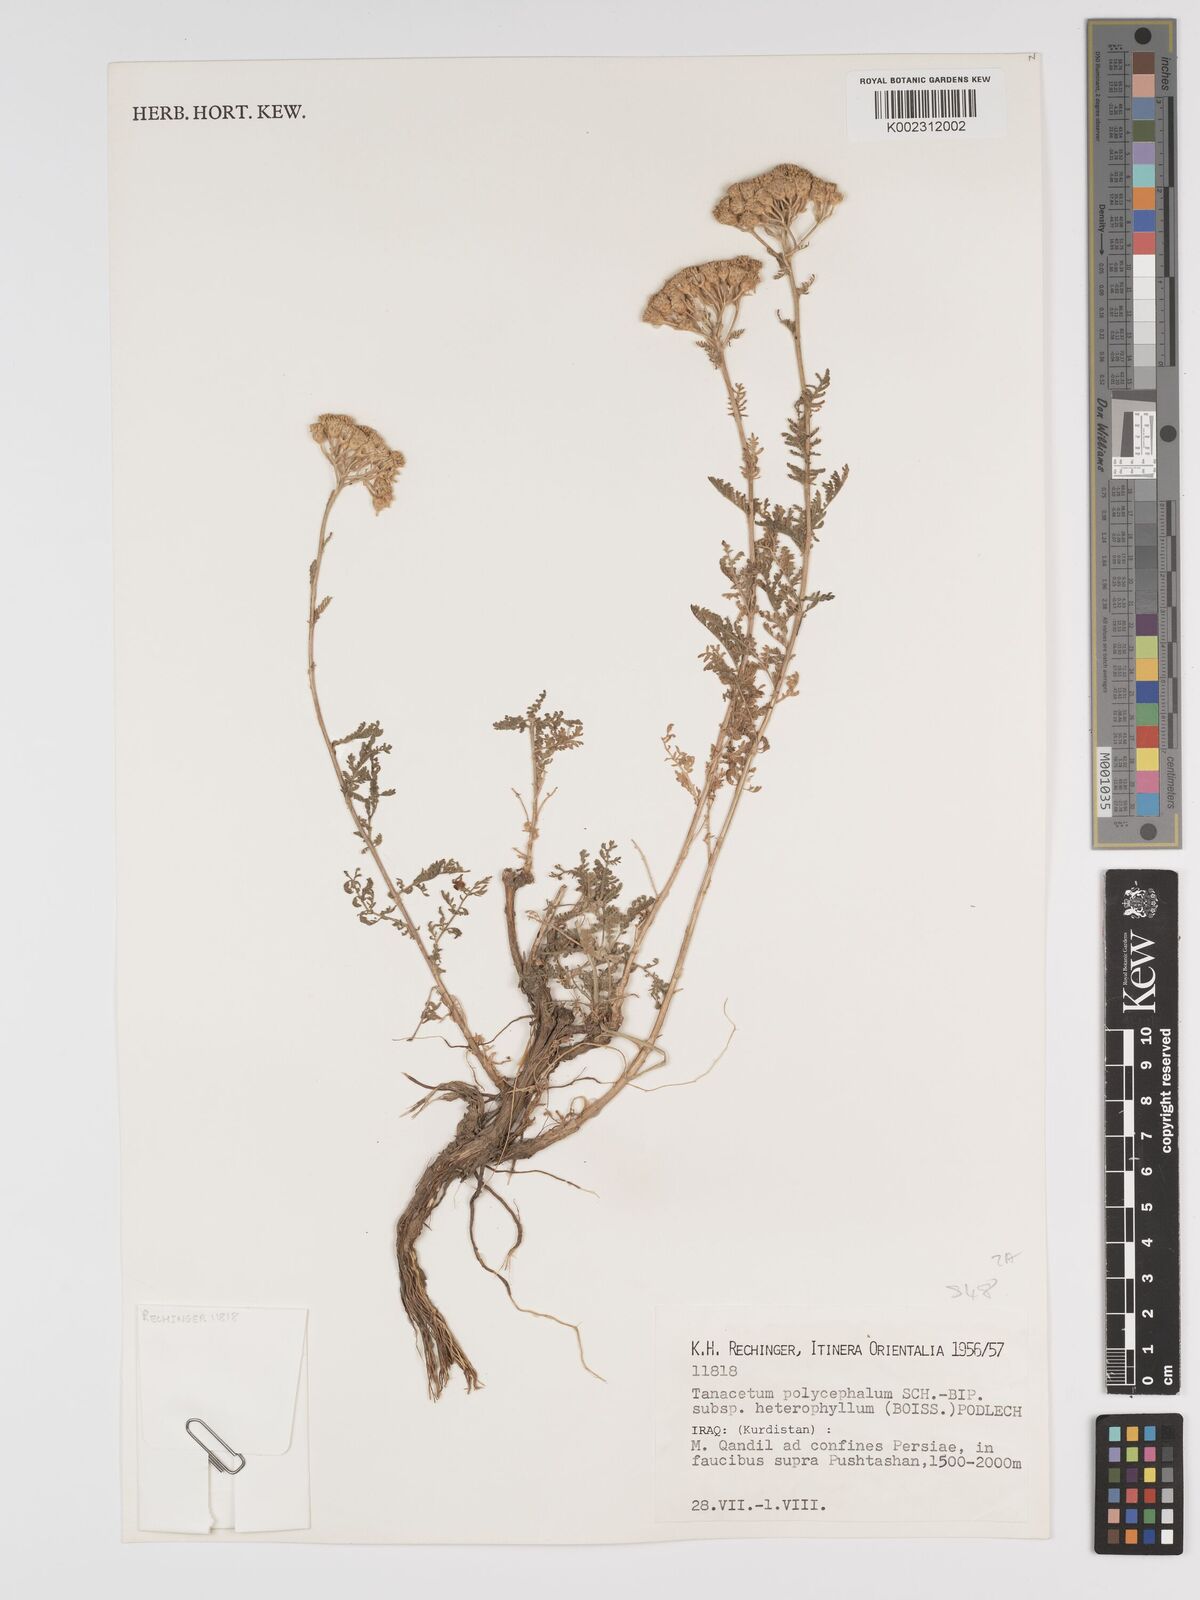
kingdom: Plantae
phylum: Tracheophyta
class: Magnoliopsida
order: Asterales
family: Asteraceae
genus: Tanacetum
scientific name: Tanacetum polycephalum
